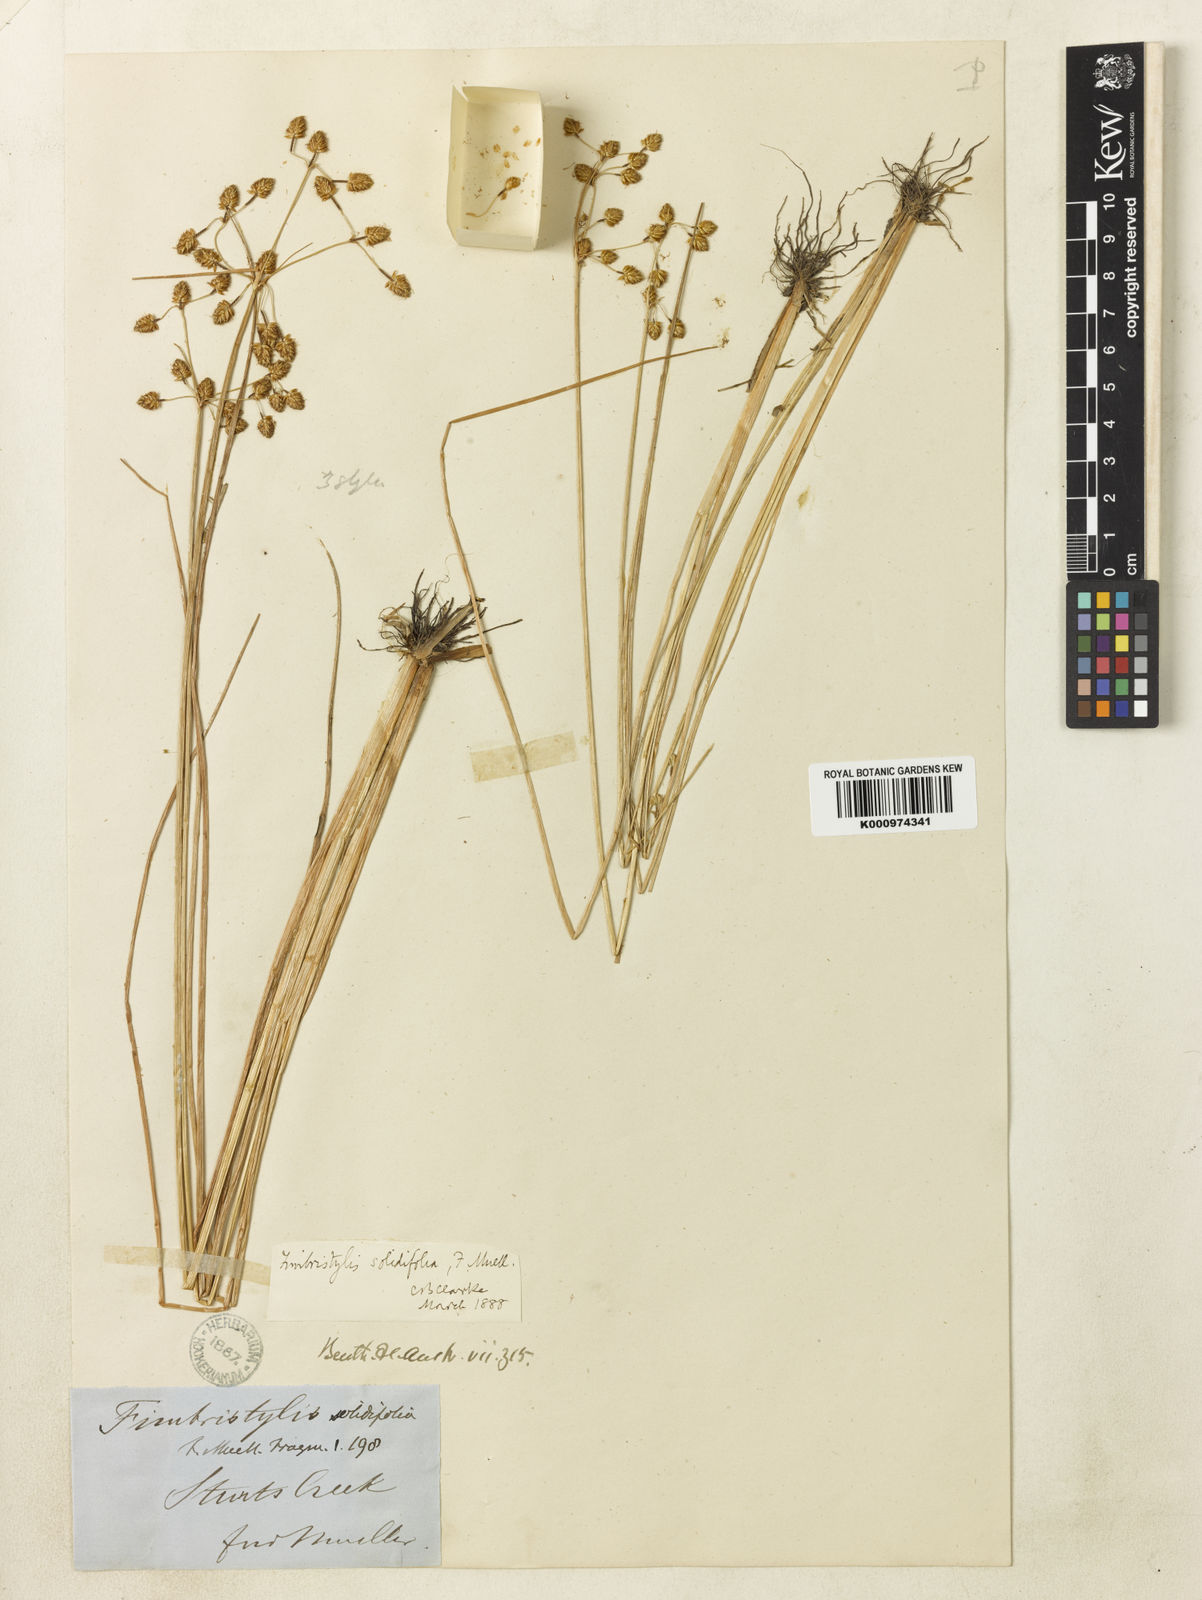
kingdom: Plantae
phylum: Tracheophyta
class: Liliopsida
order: Poales
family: Cyperaceae
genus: Fimbristylis
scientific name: Fimbristylis solidifolia
